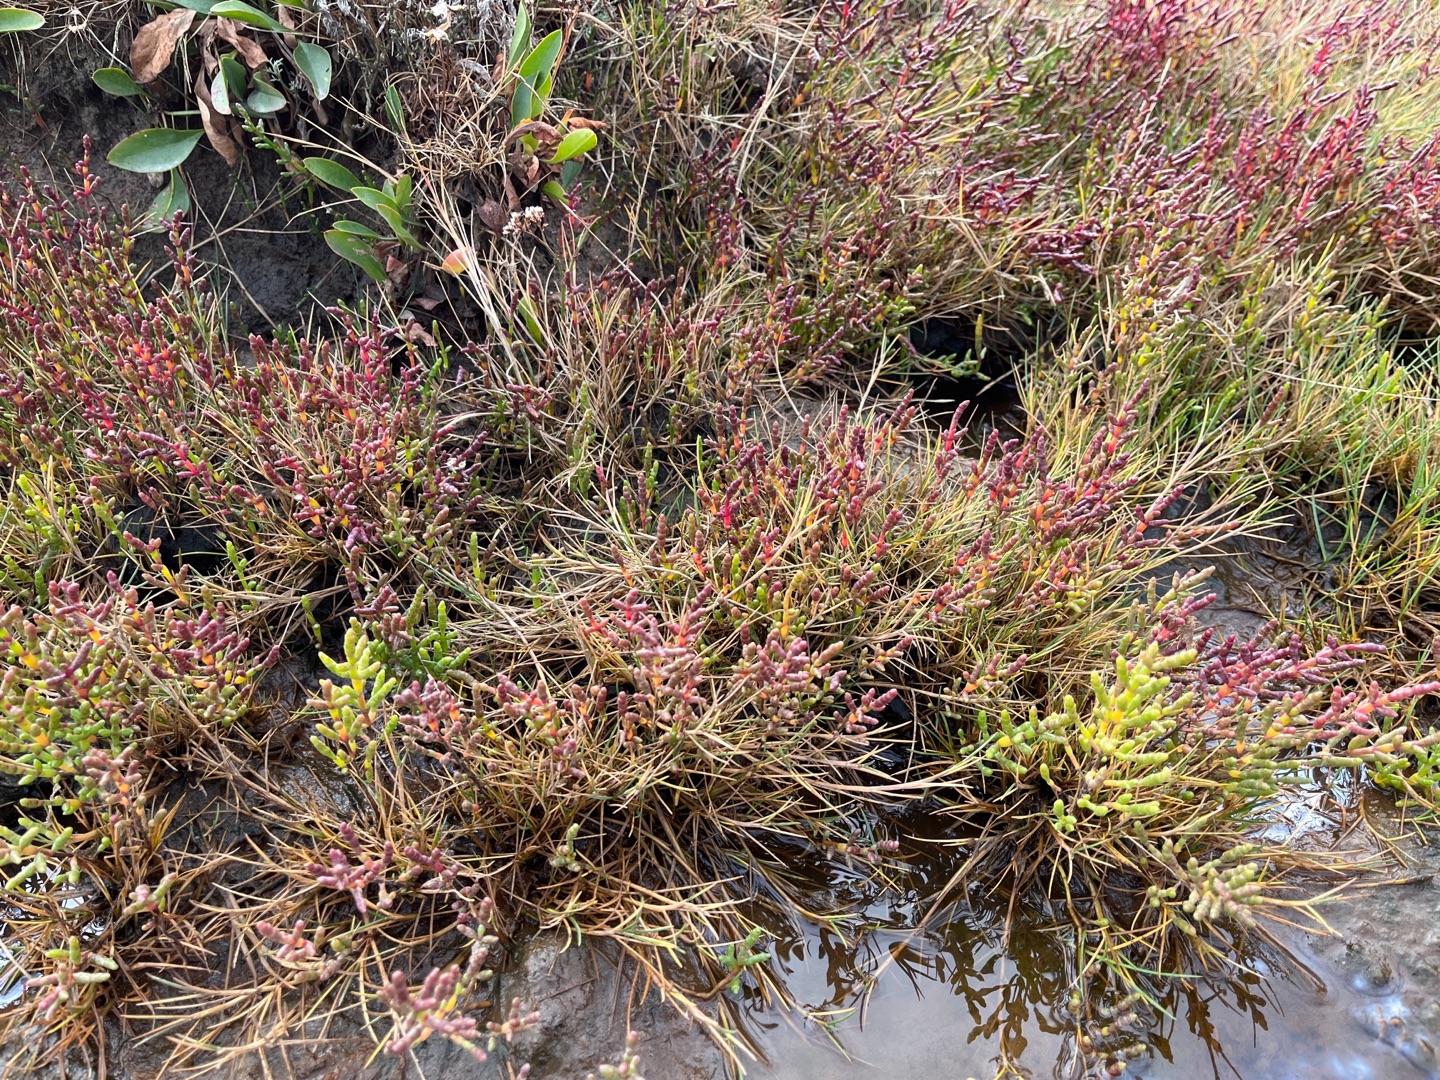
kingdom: Plantae
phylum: Tracheophyta
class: Magnoliopsida
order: Caryophyllales
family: Amaranthaceae
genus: Salicornia
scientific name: Salicornia europaea
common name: Almindelig salturt
